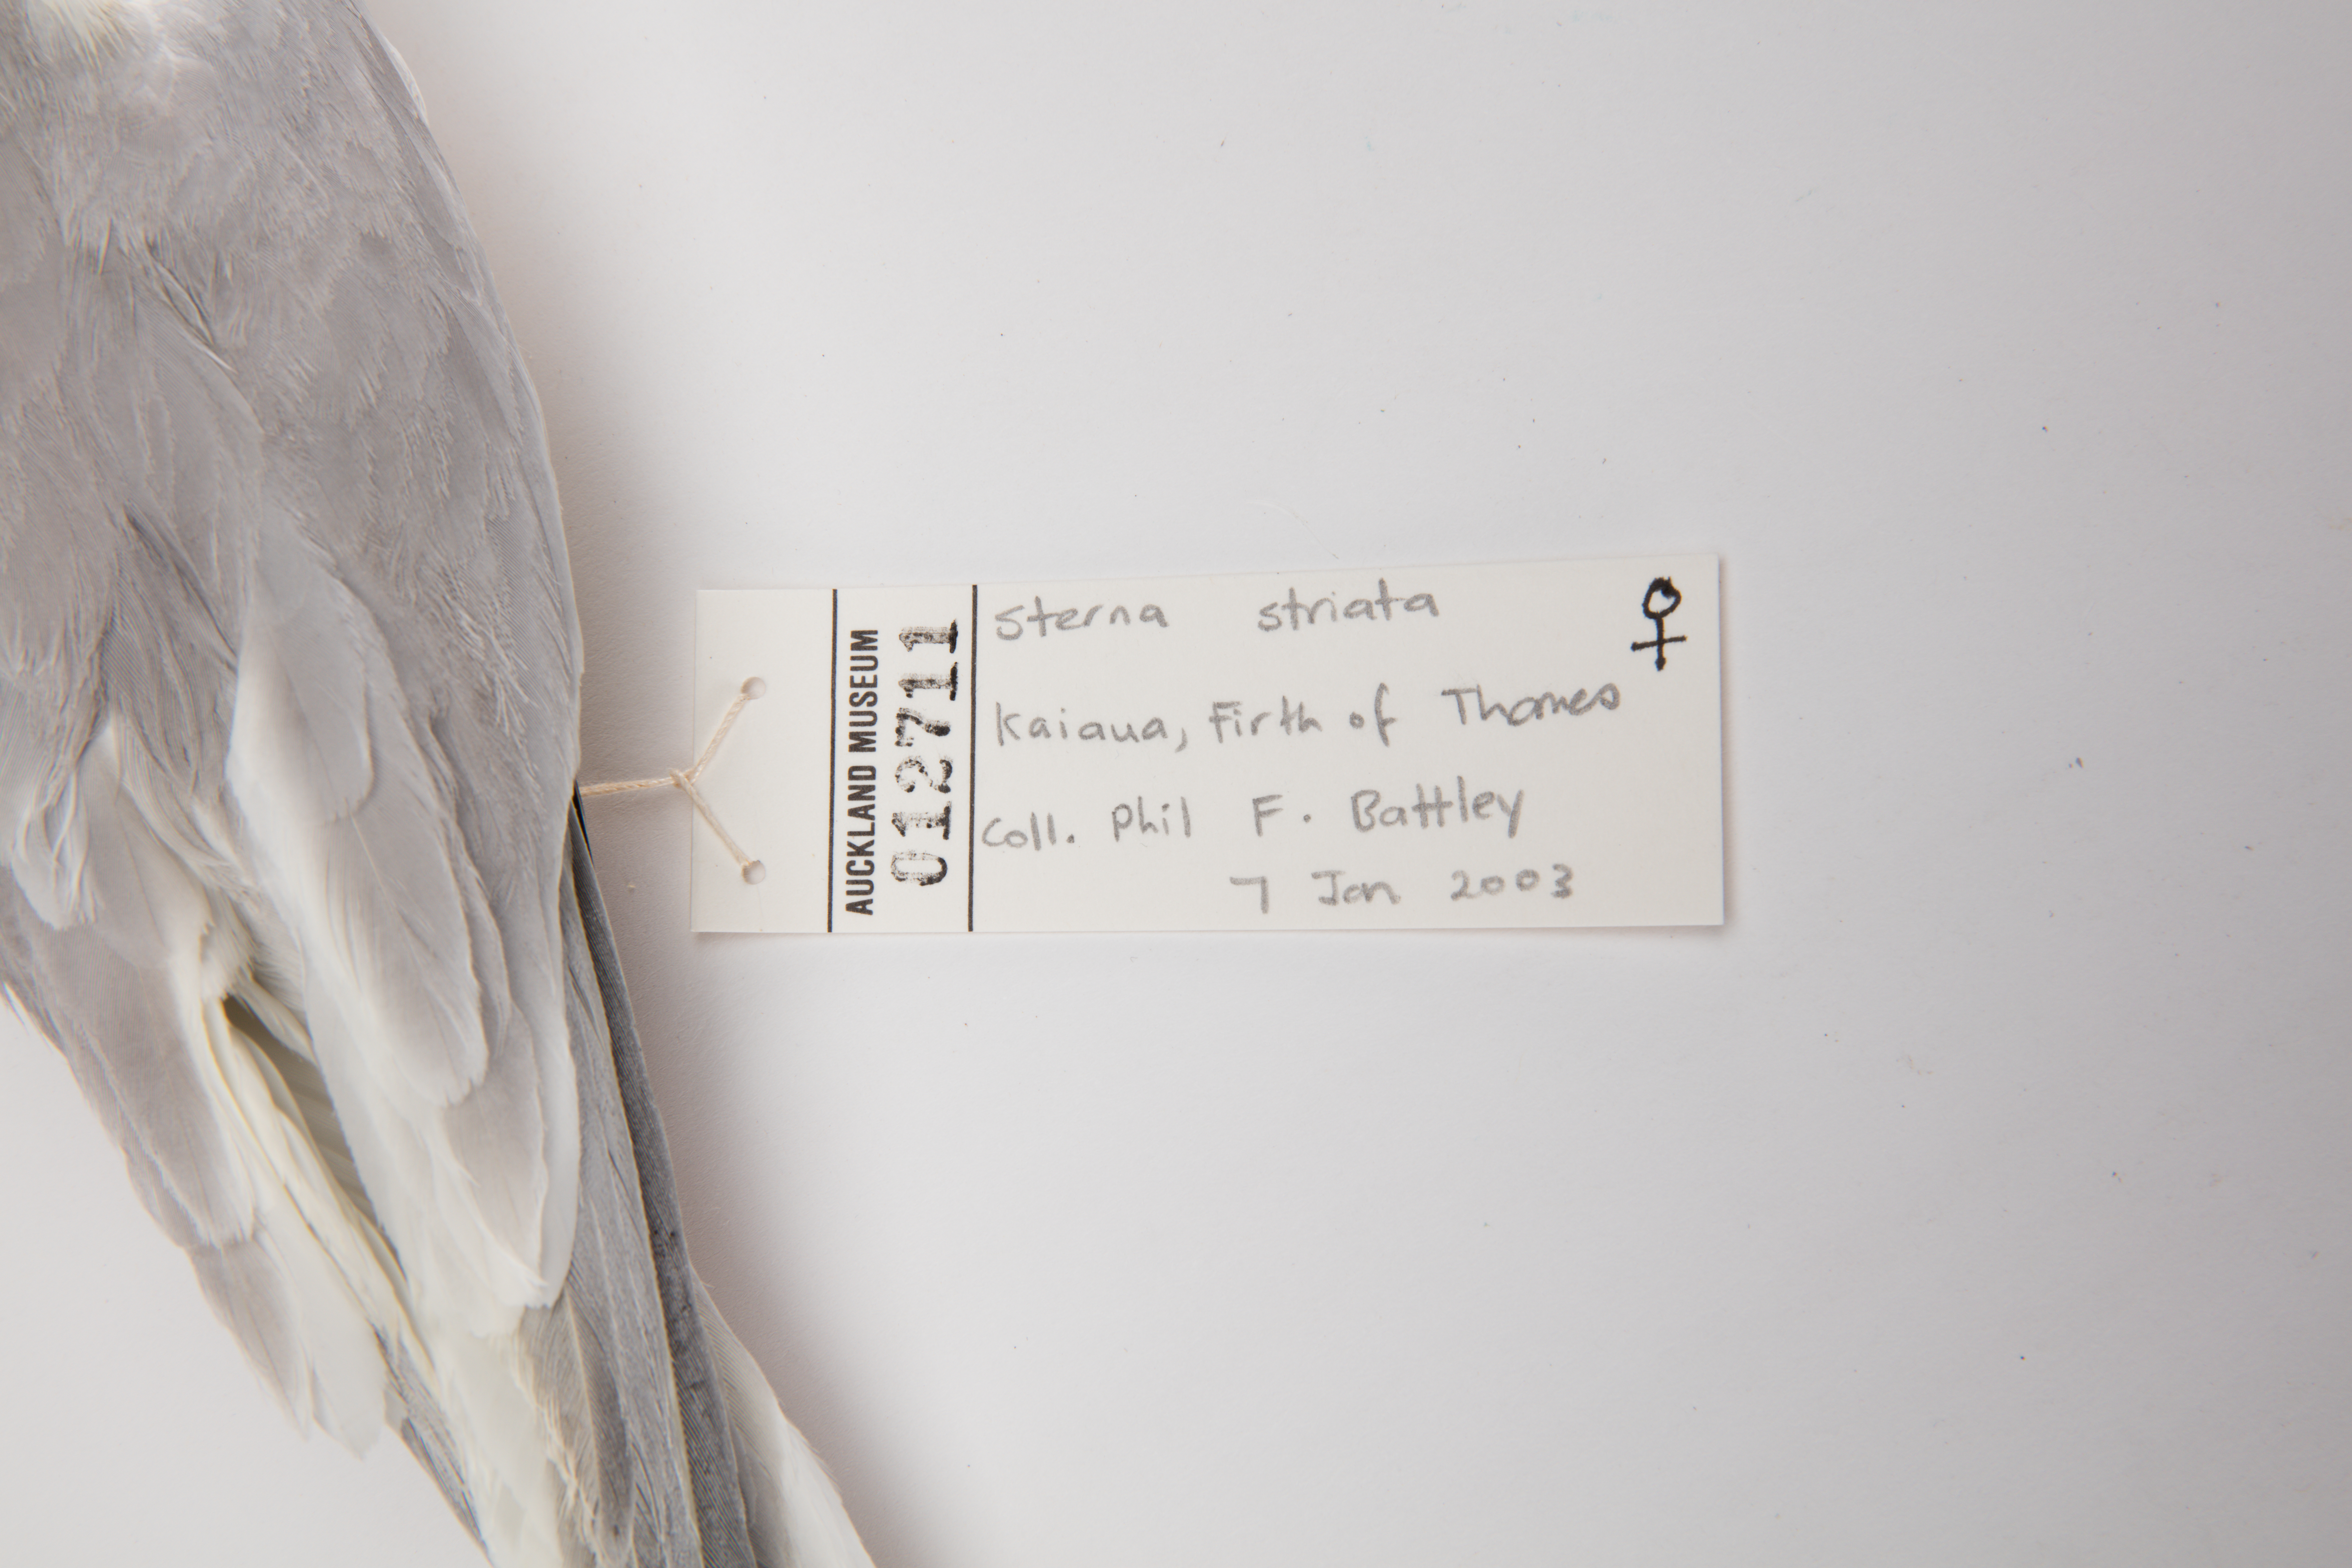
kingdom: Animalia
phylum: Chordata
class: Aves
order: Charadriiformes
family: Laridae
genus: Sterna
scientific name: Sterna striata
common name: White-fronted tern
